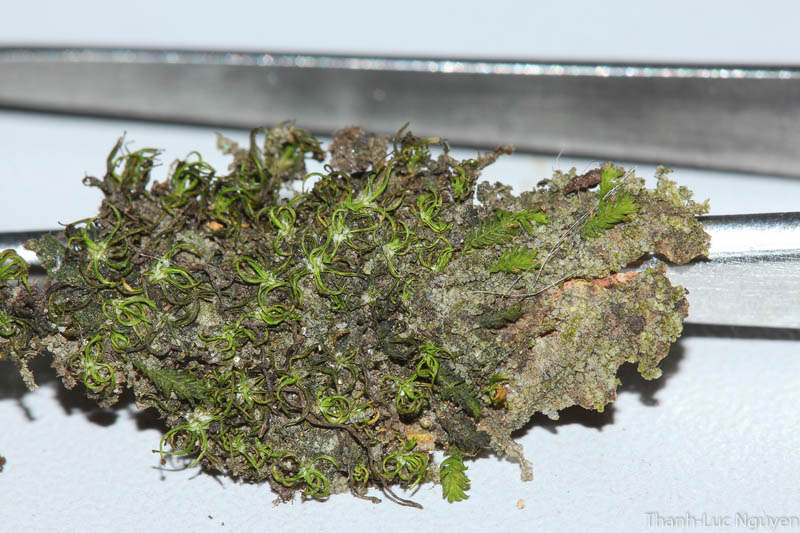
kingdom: Plantae
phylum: Bryophyta
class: Bryopsida
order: Dicranales
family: Calymperaceae
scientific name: Calymperaceae
